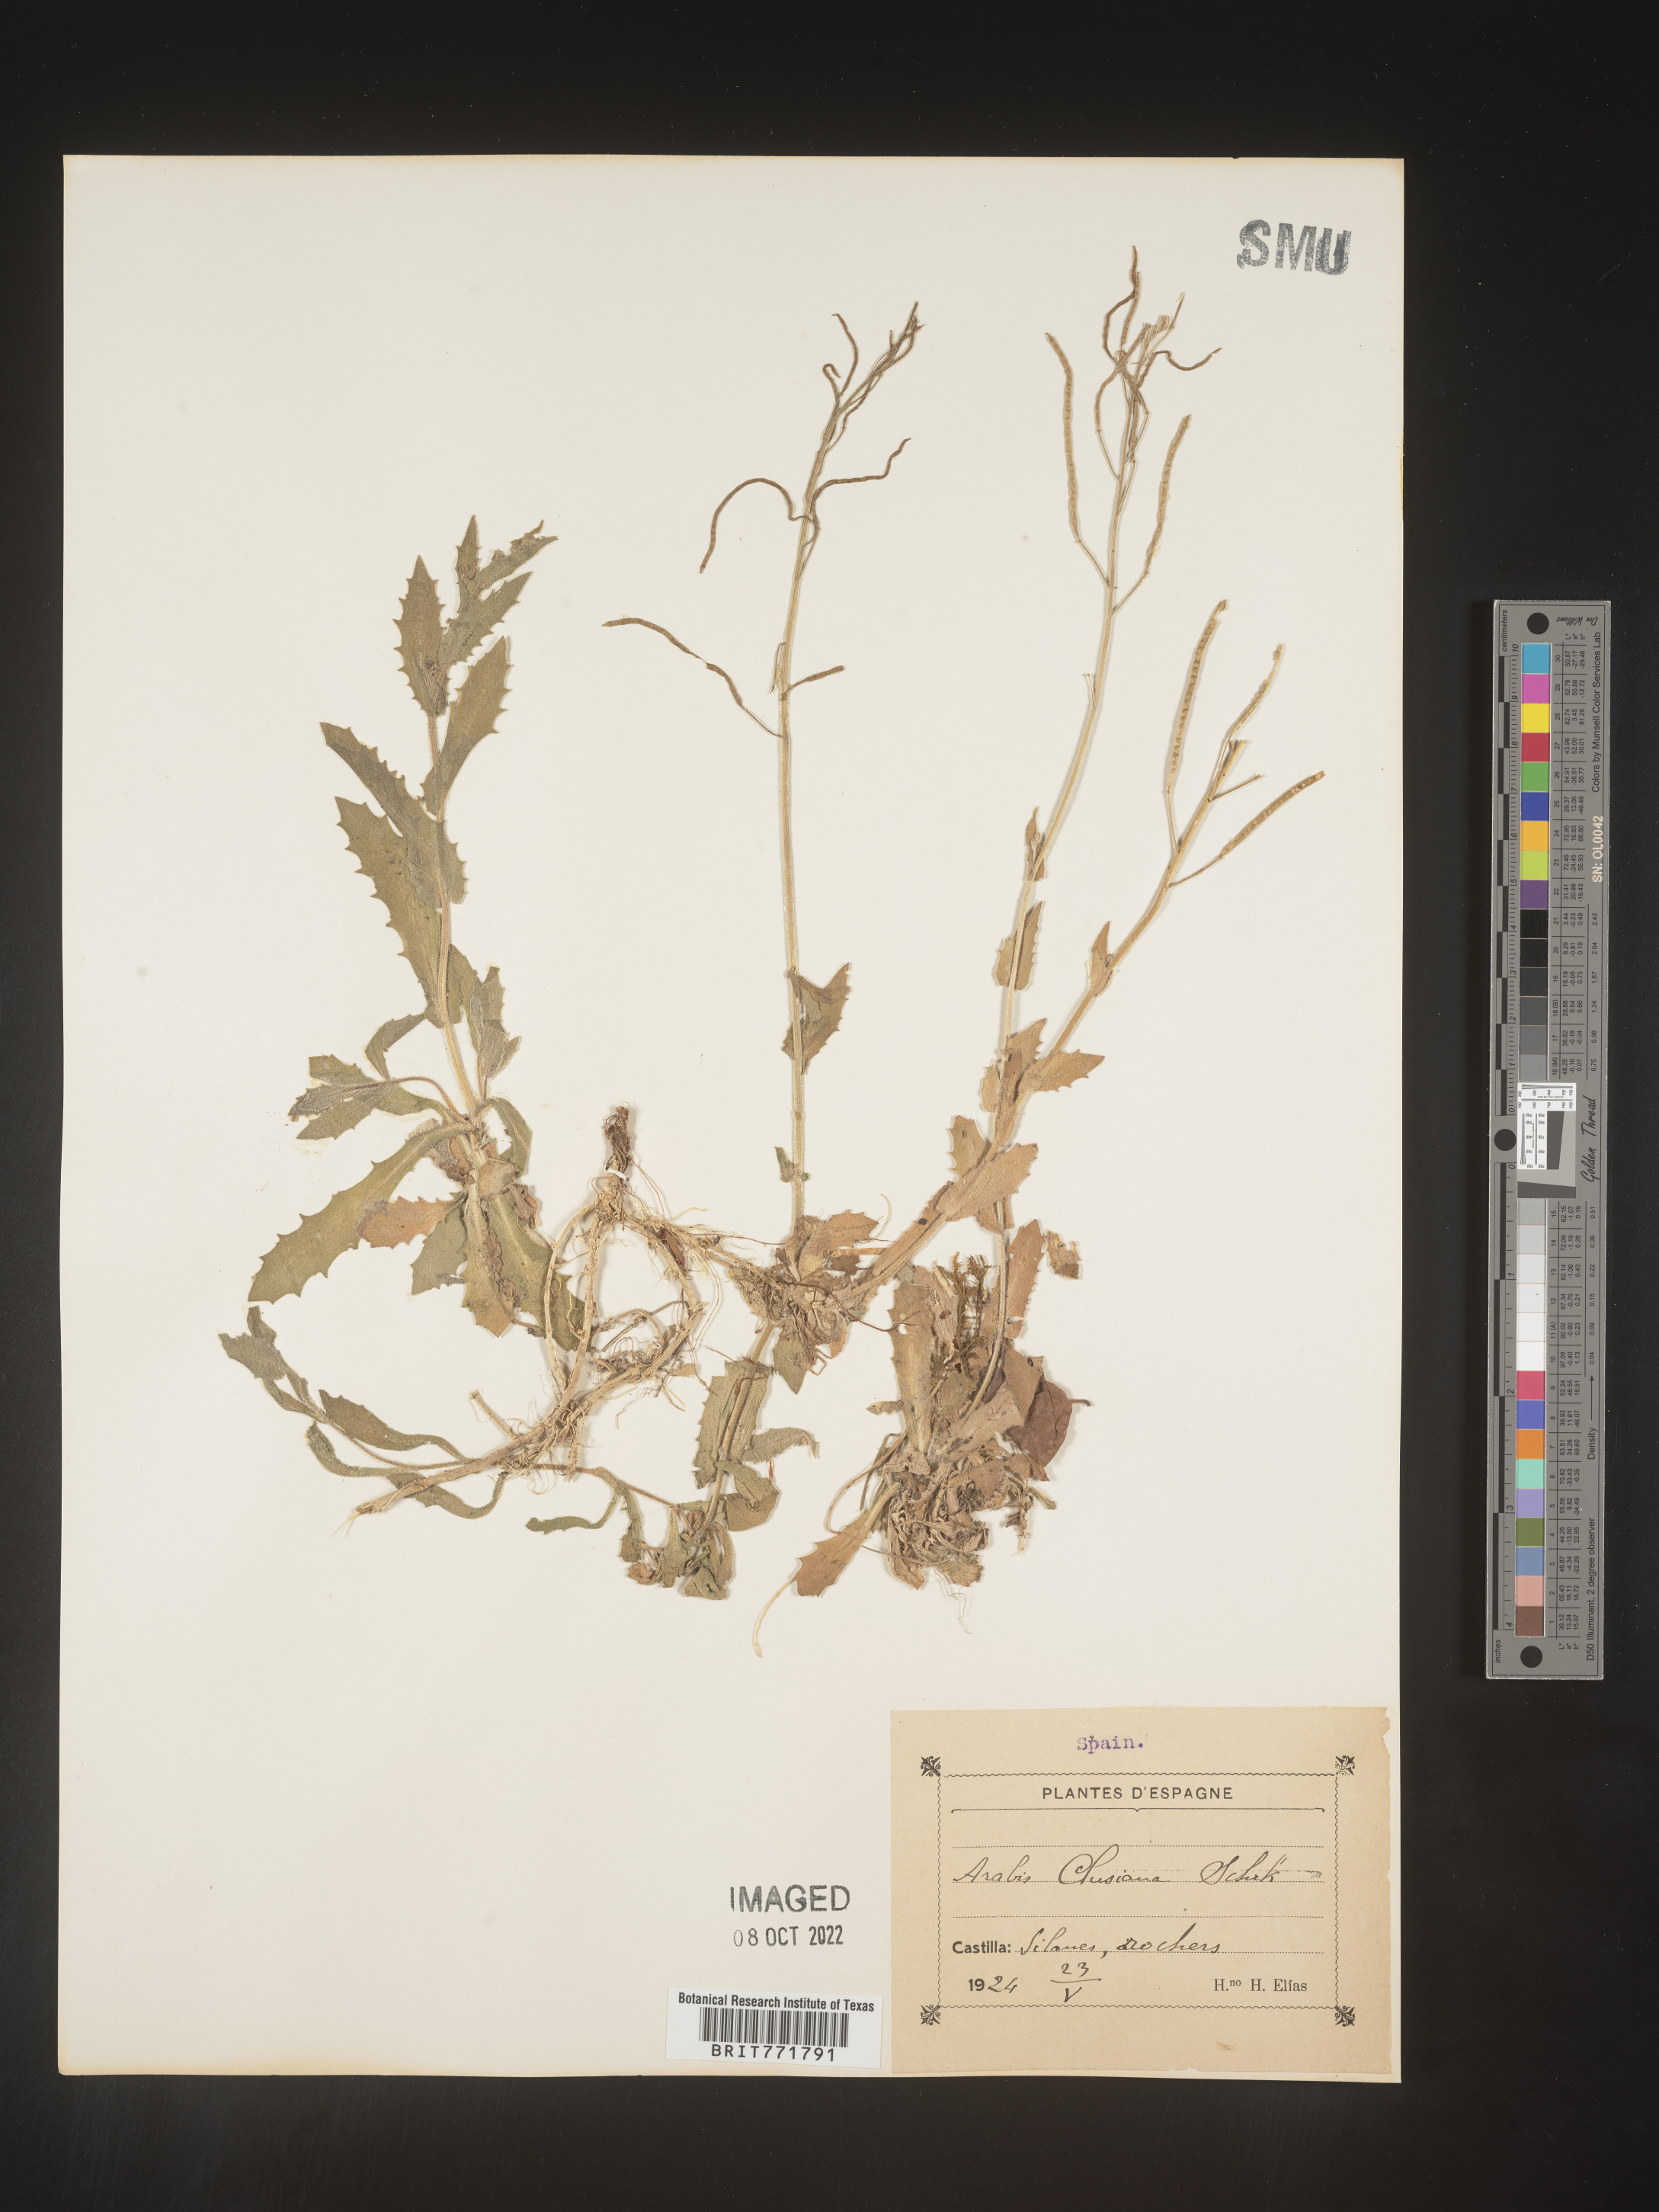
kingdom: Plantae
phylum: Tracheophyta
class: Magnoliopsida
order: Brassicales
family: Brassicaceae
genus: Arabis
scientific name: Arabis
